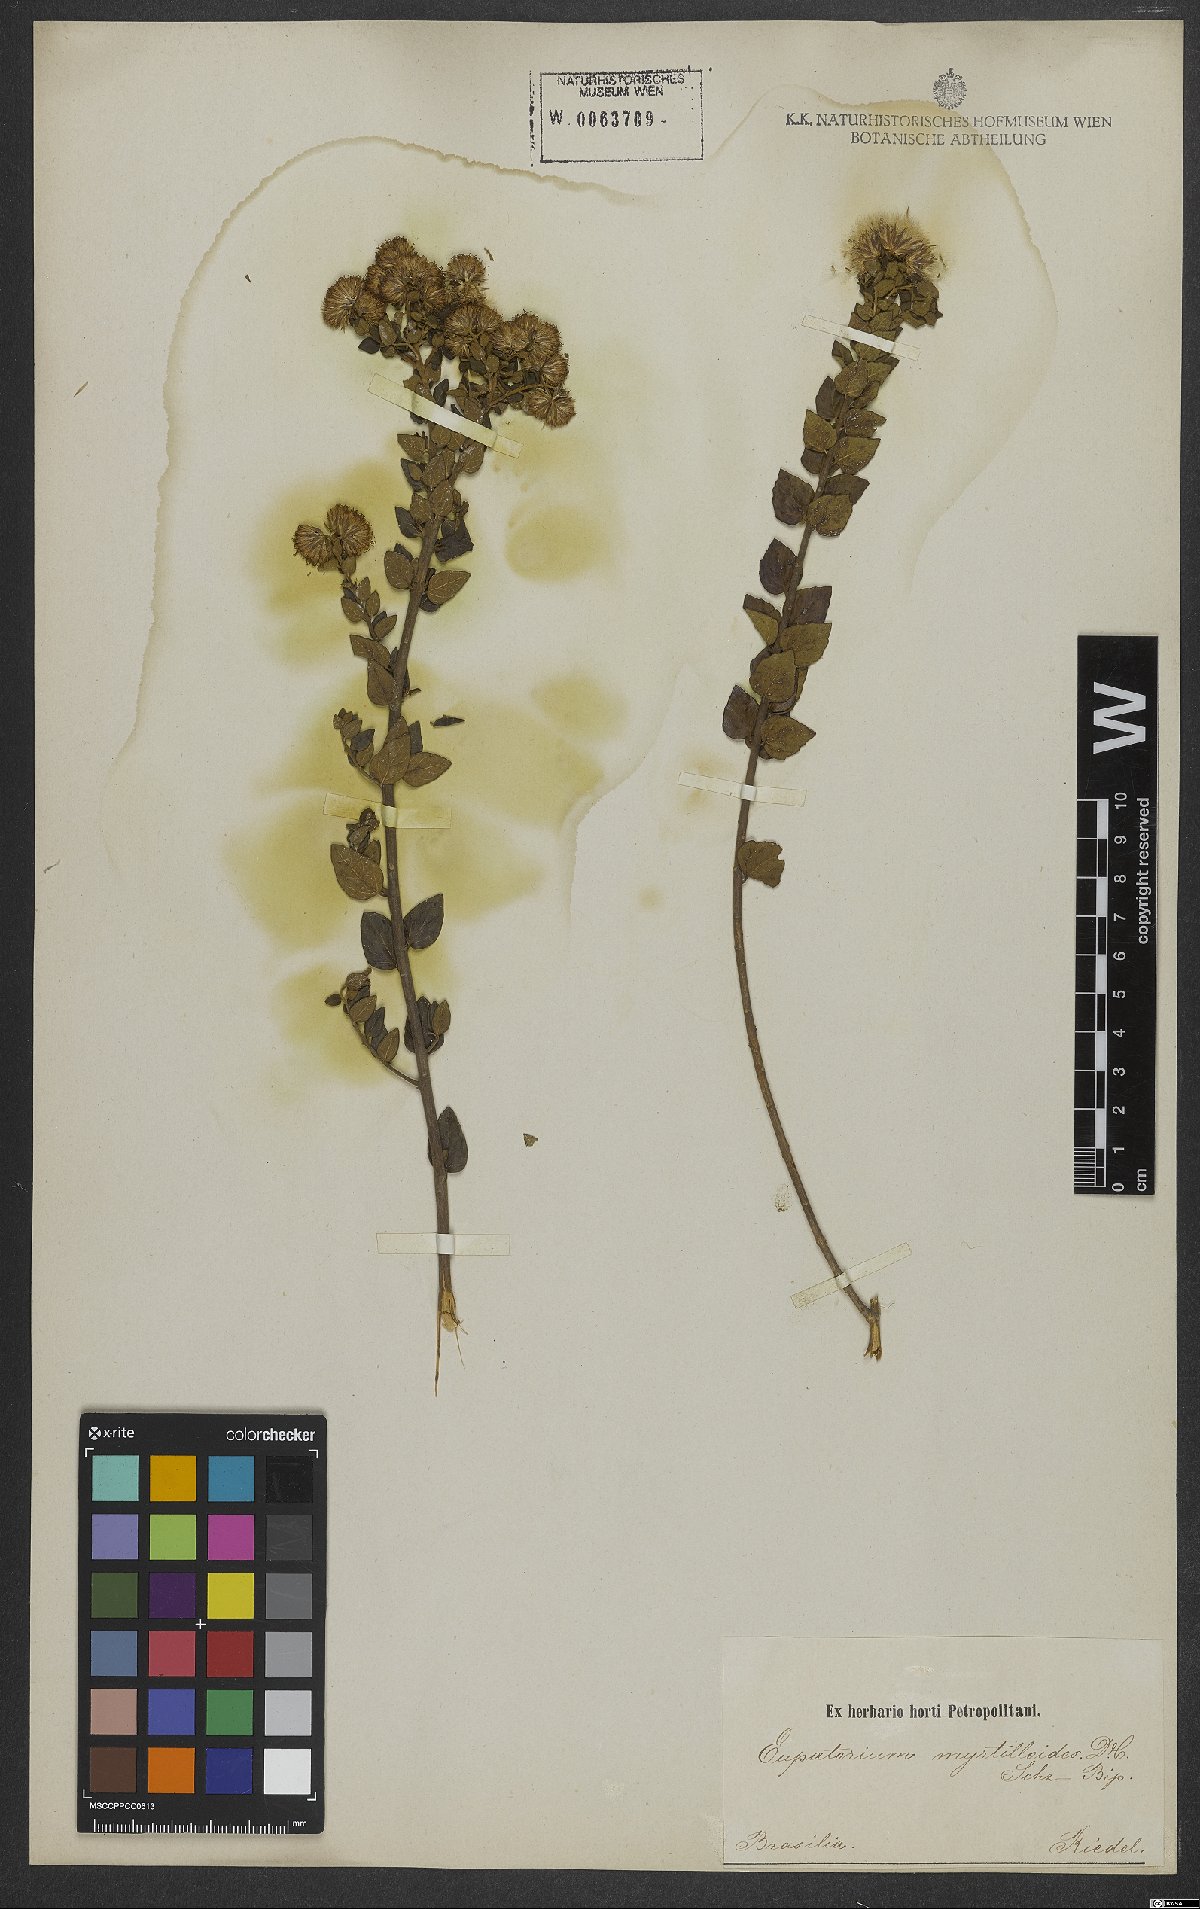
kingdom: Plantae
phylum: Tracheophyta
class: Magnoliopsida
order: Asterales
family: Asteraceae
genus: Koanophyllon
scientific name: Koanophyllon myrtilloides
